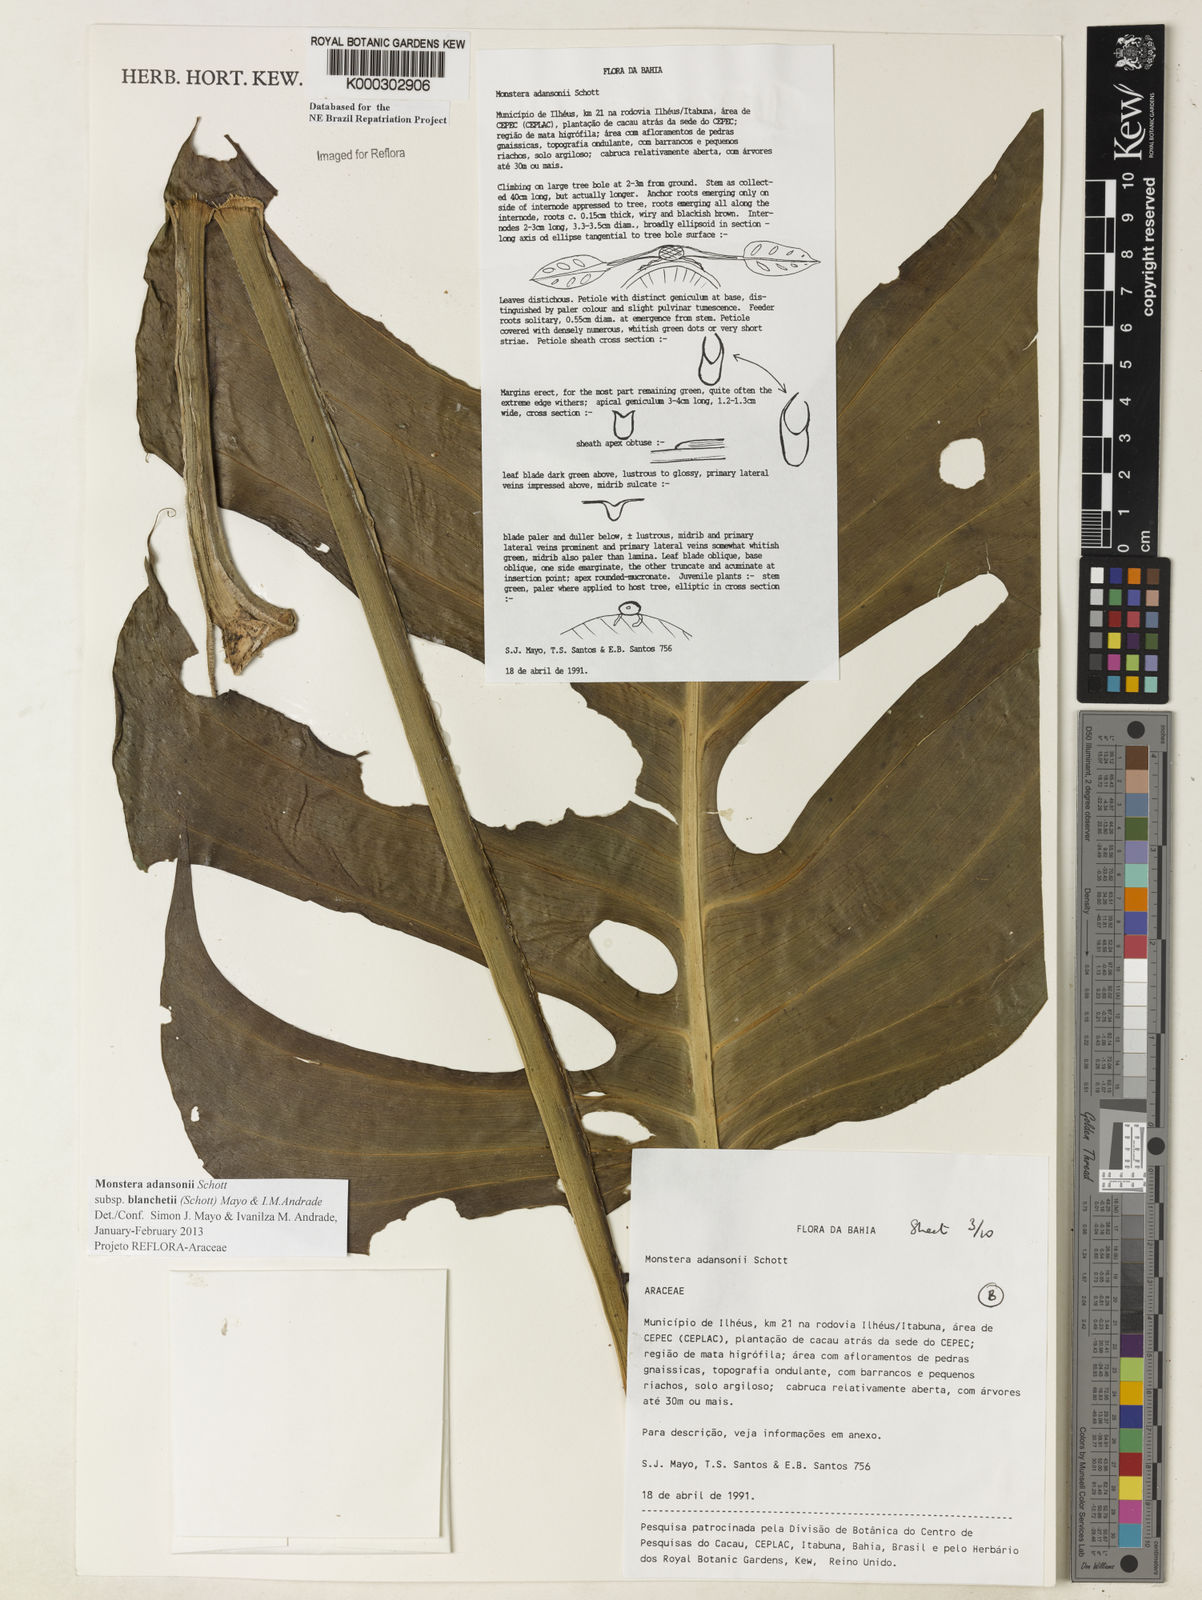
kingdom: Plantae
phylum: Tracheophyta
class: Liliopsida
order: Alismatales
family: Araceae
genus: Monstera
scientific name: Monstera adansonii
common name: Tarovine
